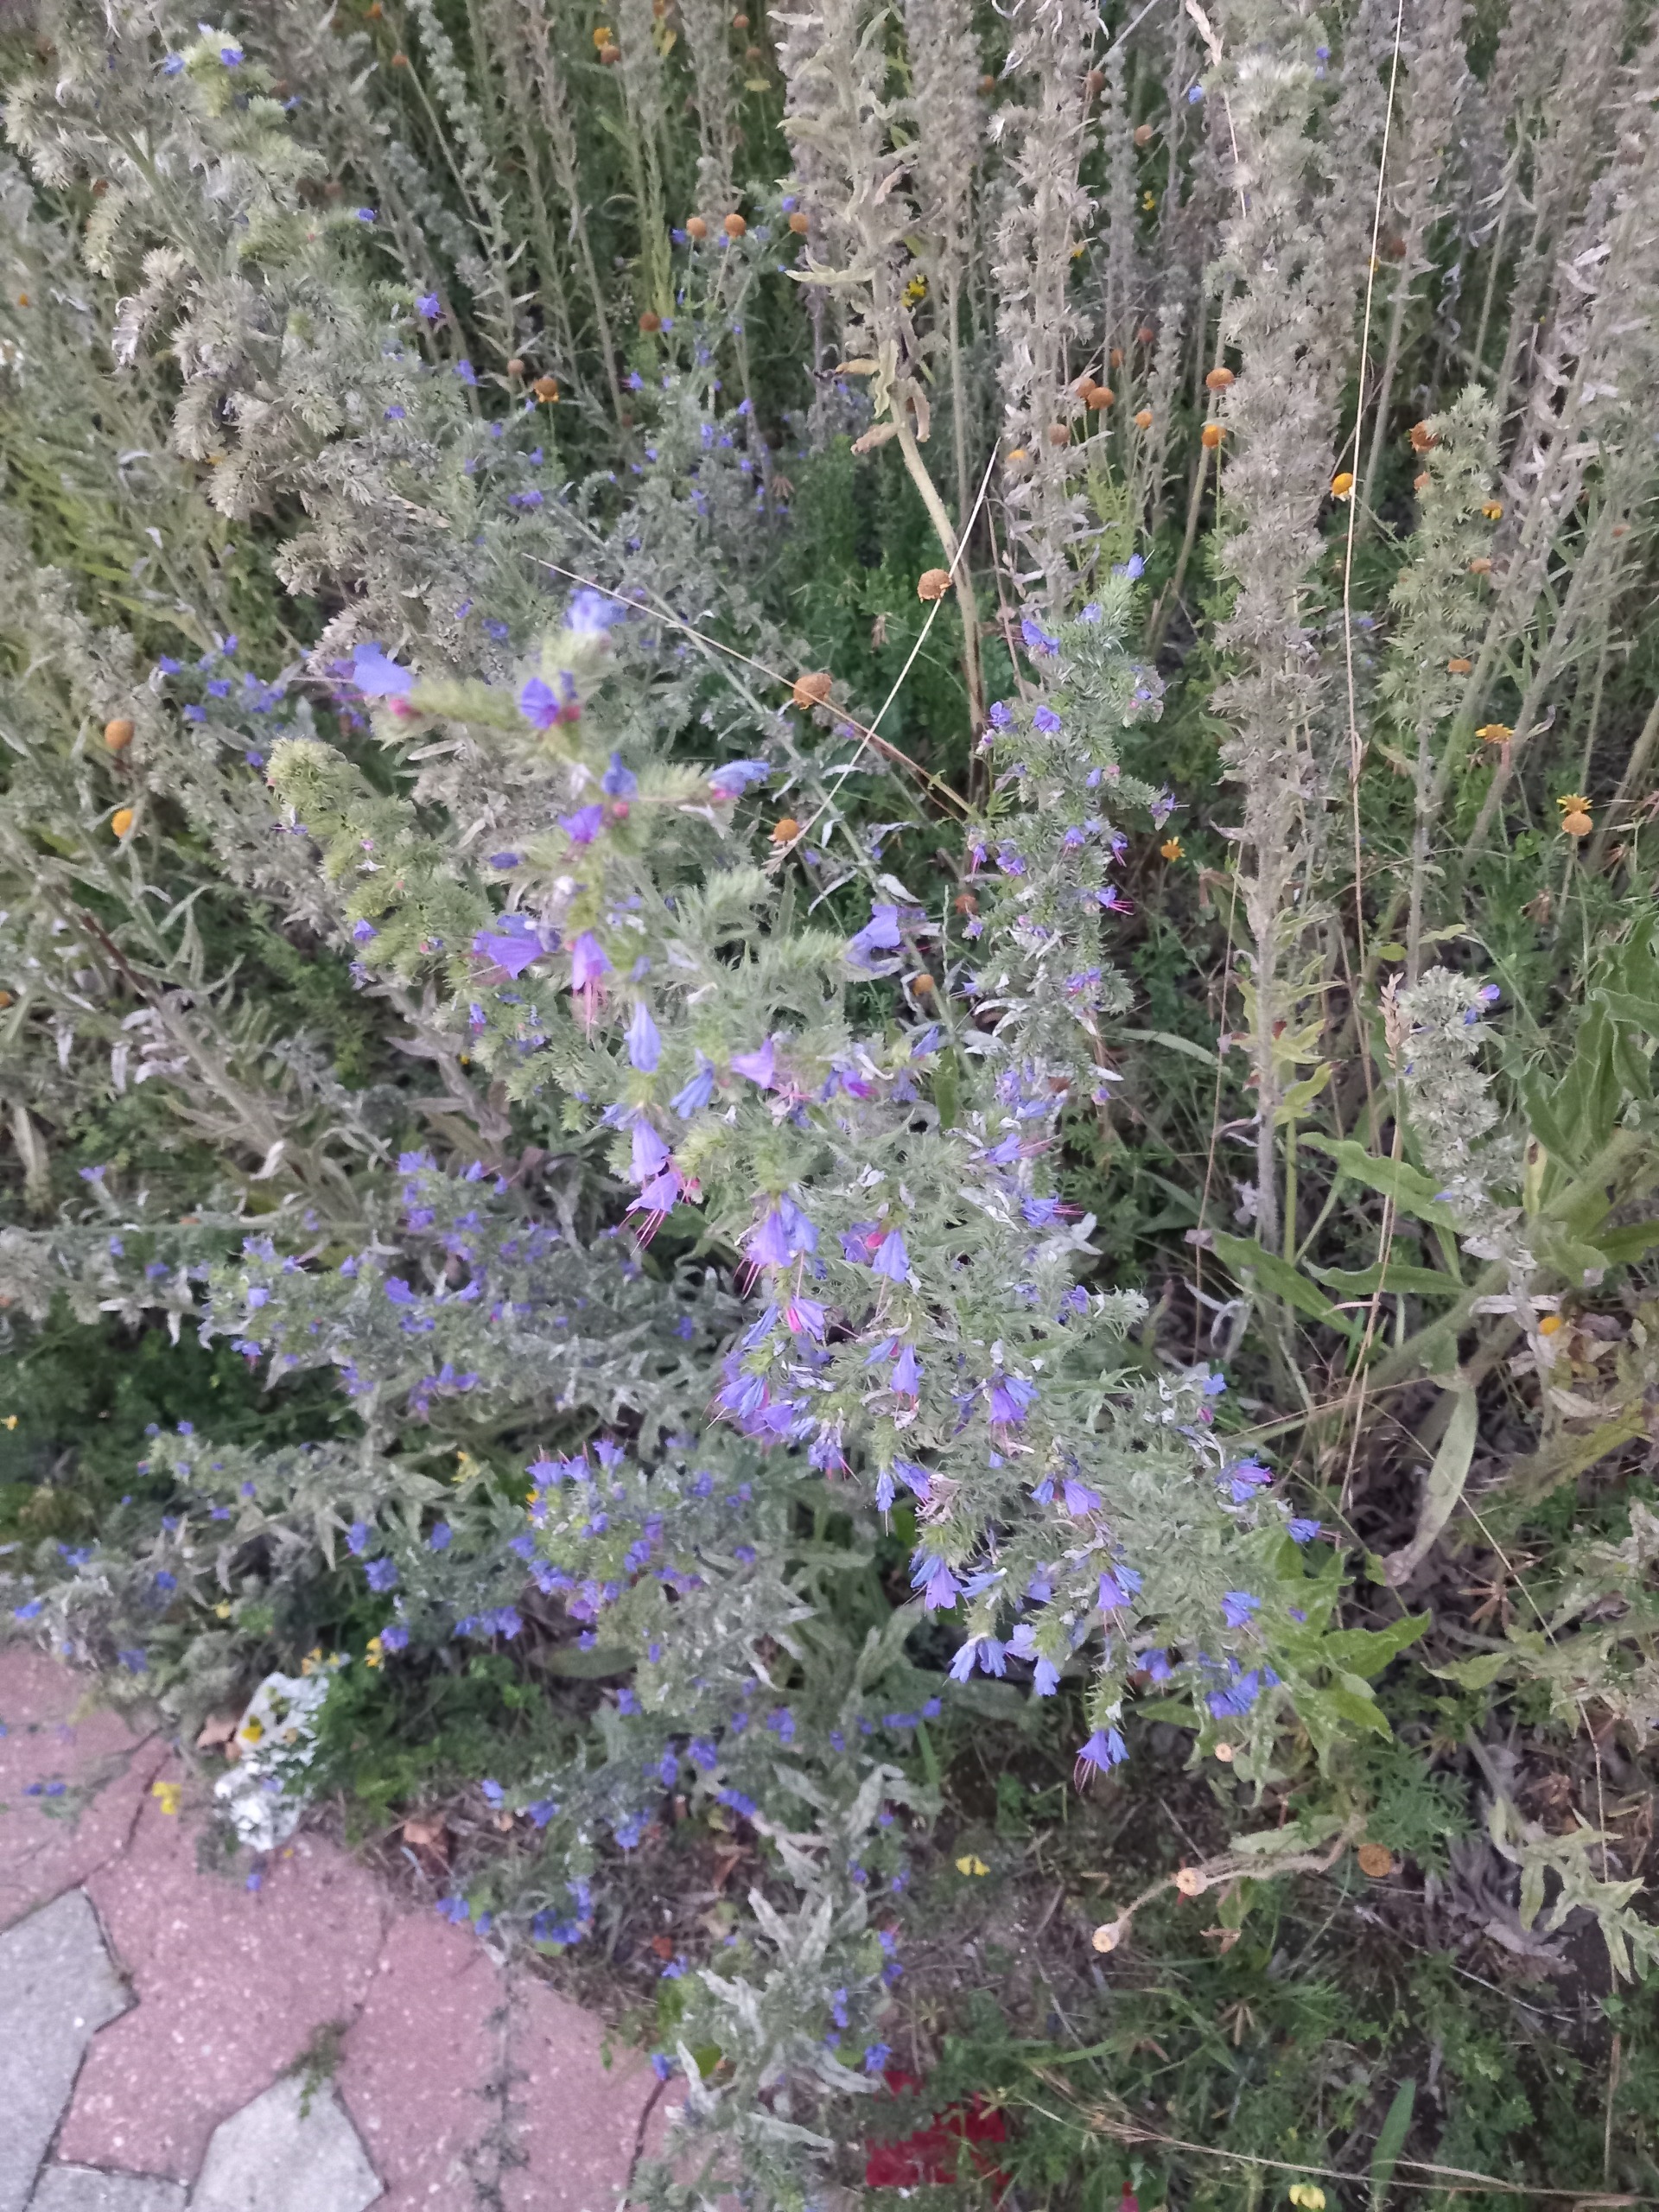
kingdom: Plantae
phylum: Tracheophyta
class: Magnoliopsida
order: Boraginales
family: Boraginaceae
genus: Echium
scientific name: Echium vulgare
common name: Slangehoved
